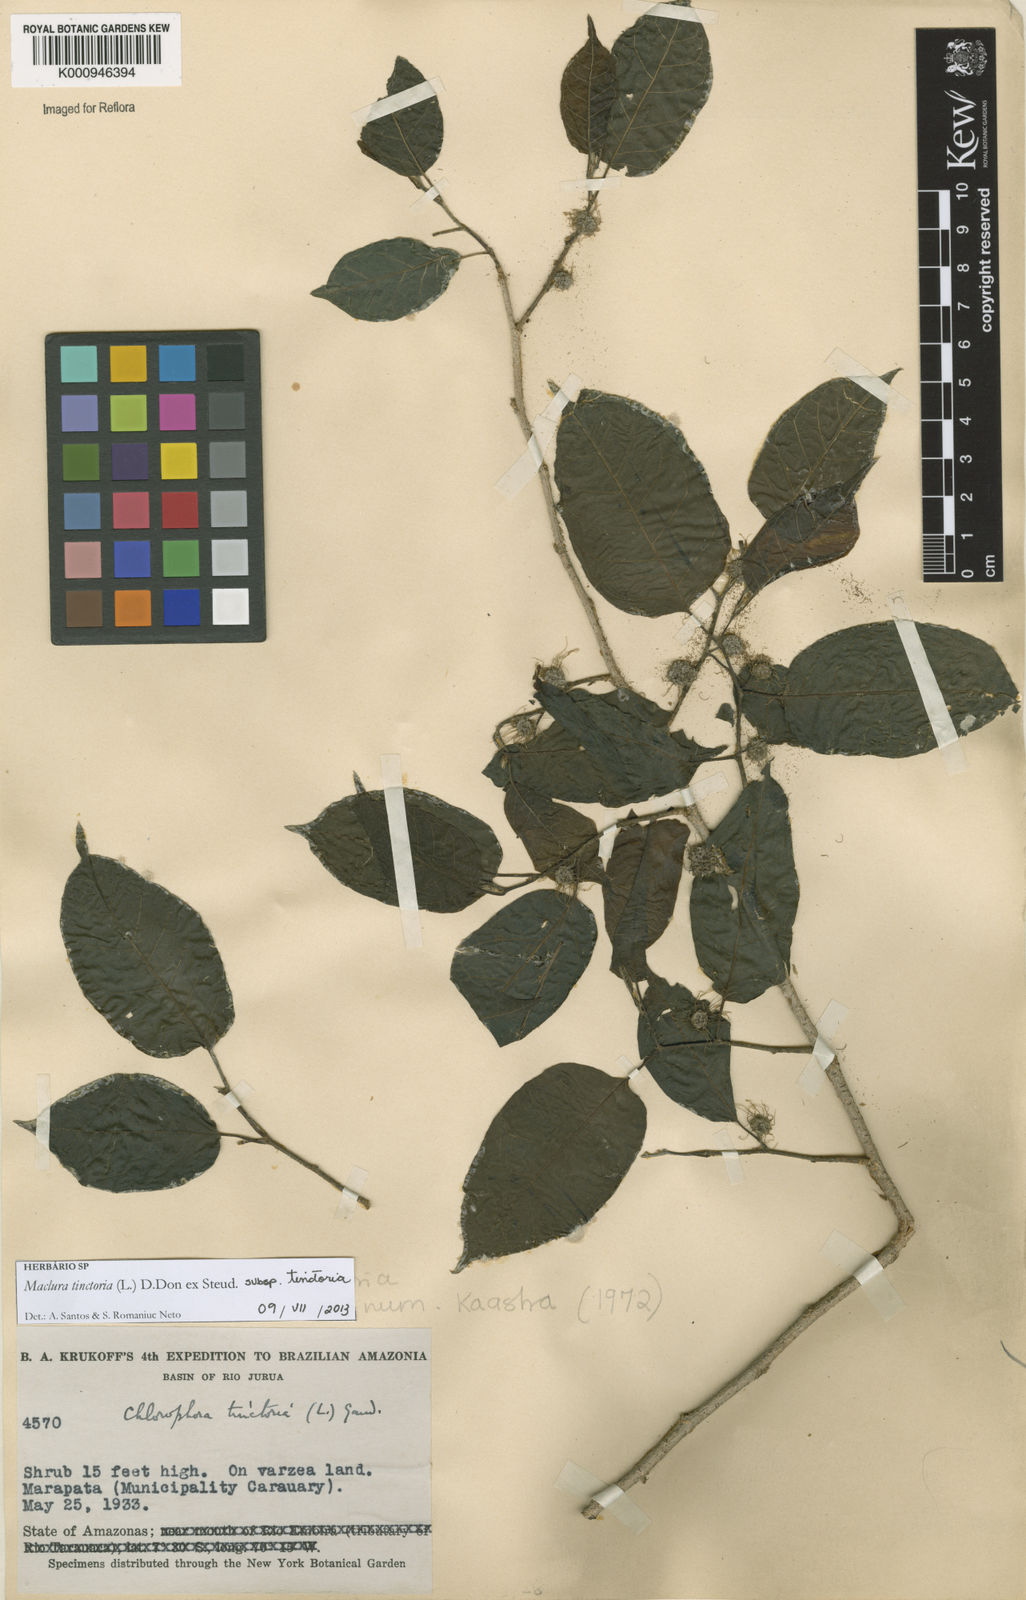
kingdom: Plantae
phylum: Tracheophyta
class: Magnoliopsida
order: Rosales
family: Moraceae
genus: Maclura
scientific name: Maclura
